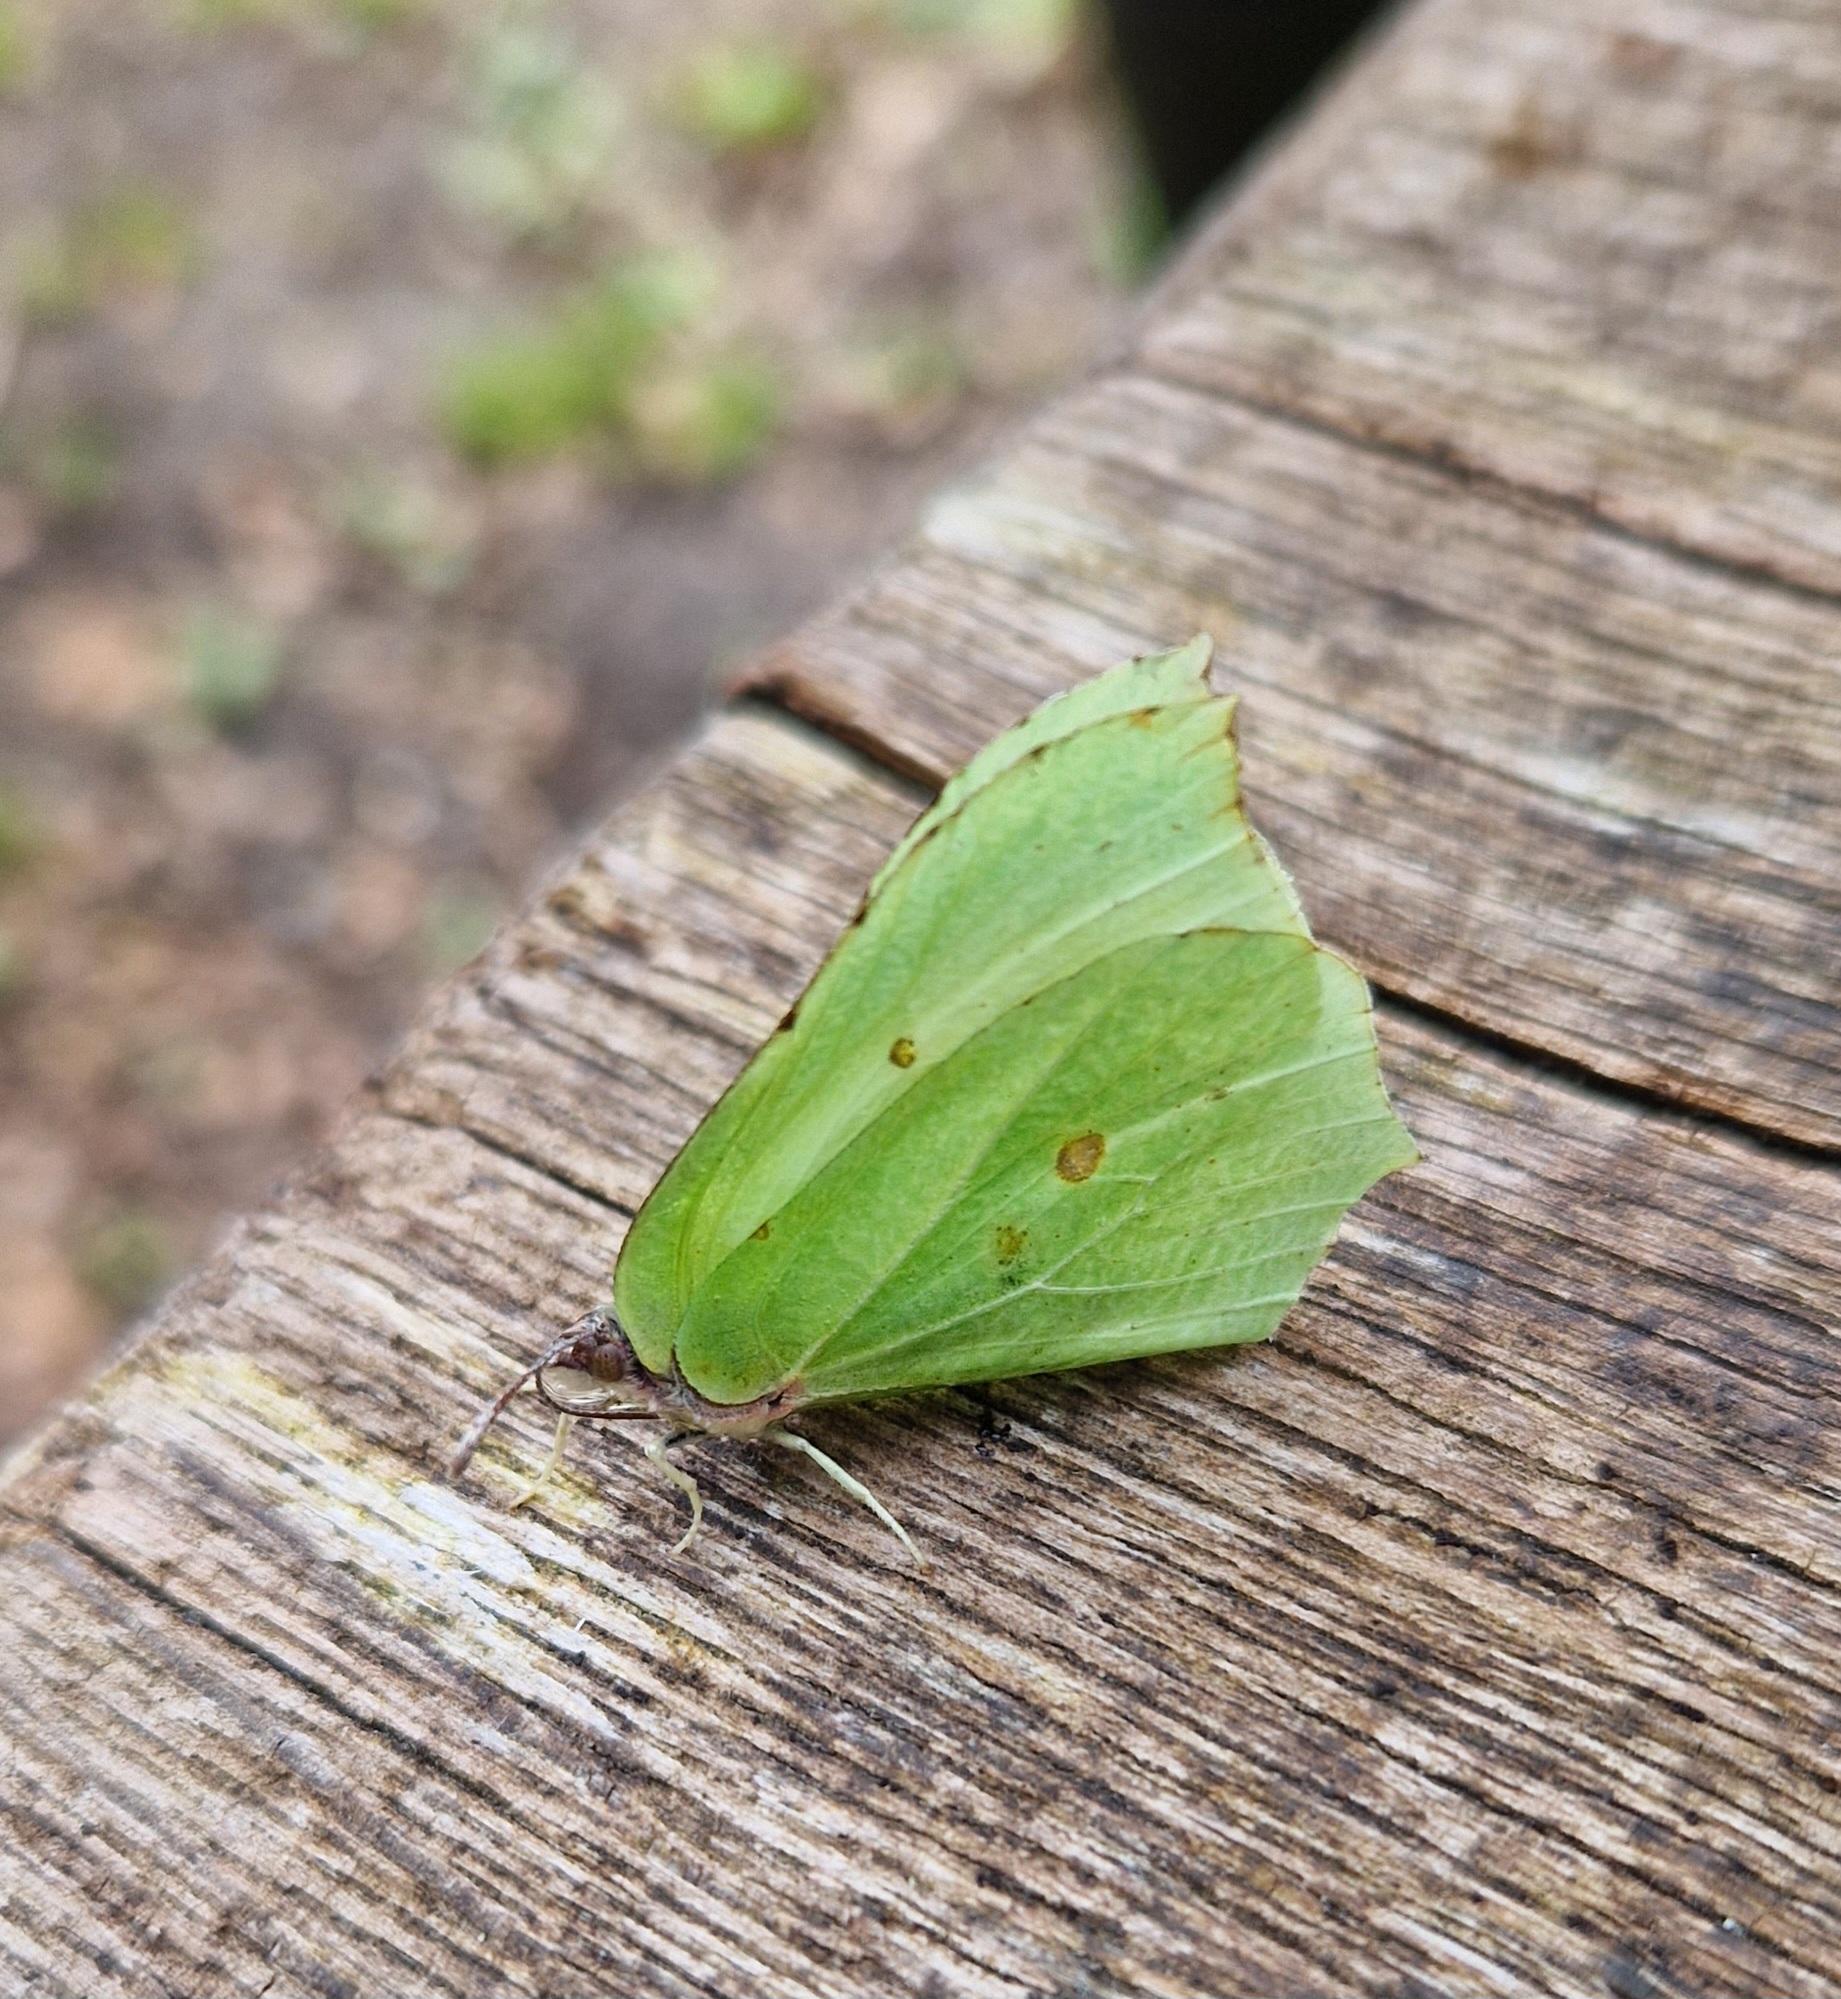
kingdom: Animalia
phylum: Arthropoda
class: Insecta
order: Lepidoptera
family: Pieridae
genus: Gonepteryx
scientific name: Gonepteryx rhamni
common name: Citronsommerfugl
